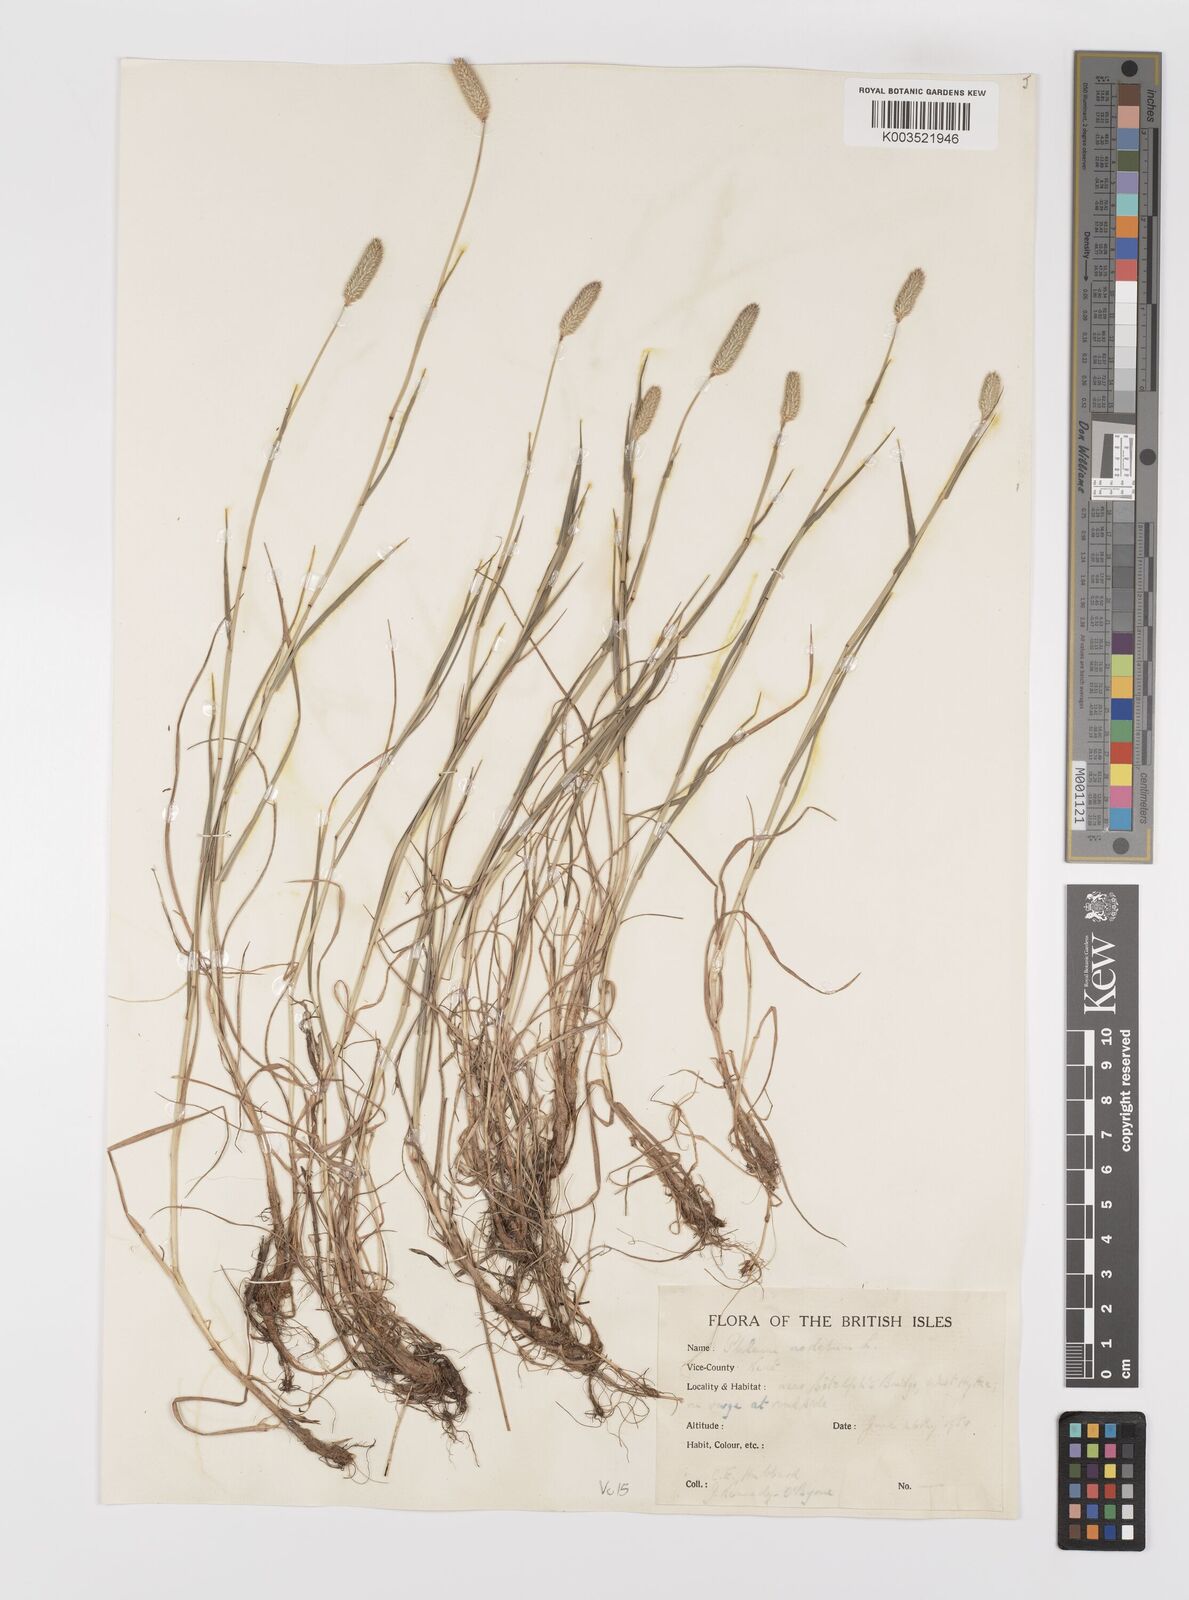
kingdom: Plantae
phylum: Tracheophyta
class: Liliopsida
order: Poales
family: Poaceae
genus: Phleum
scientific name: Phleum bertolonii
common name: Smaller cat's-tail
